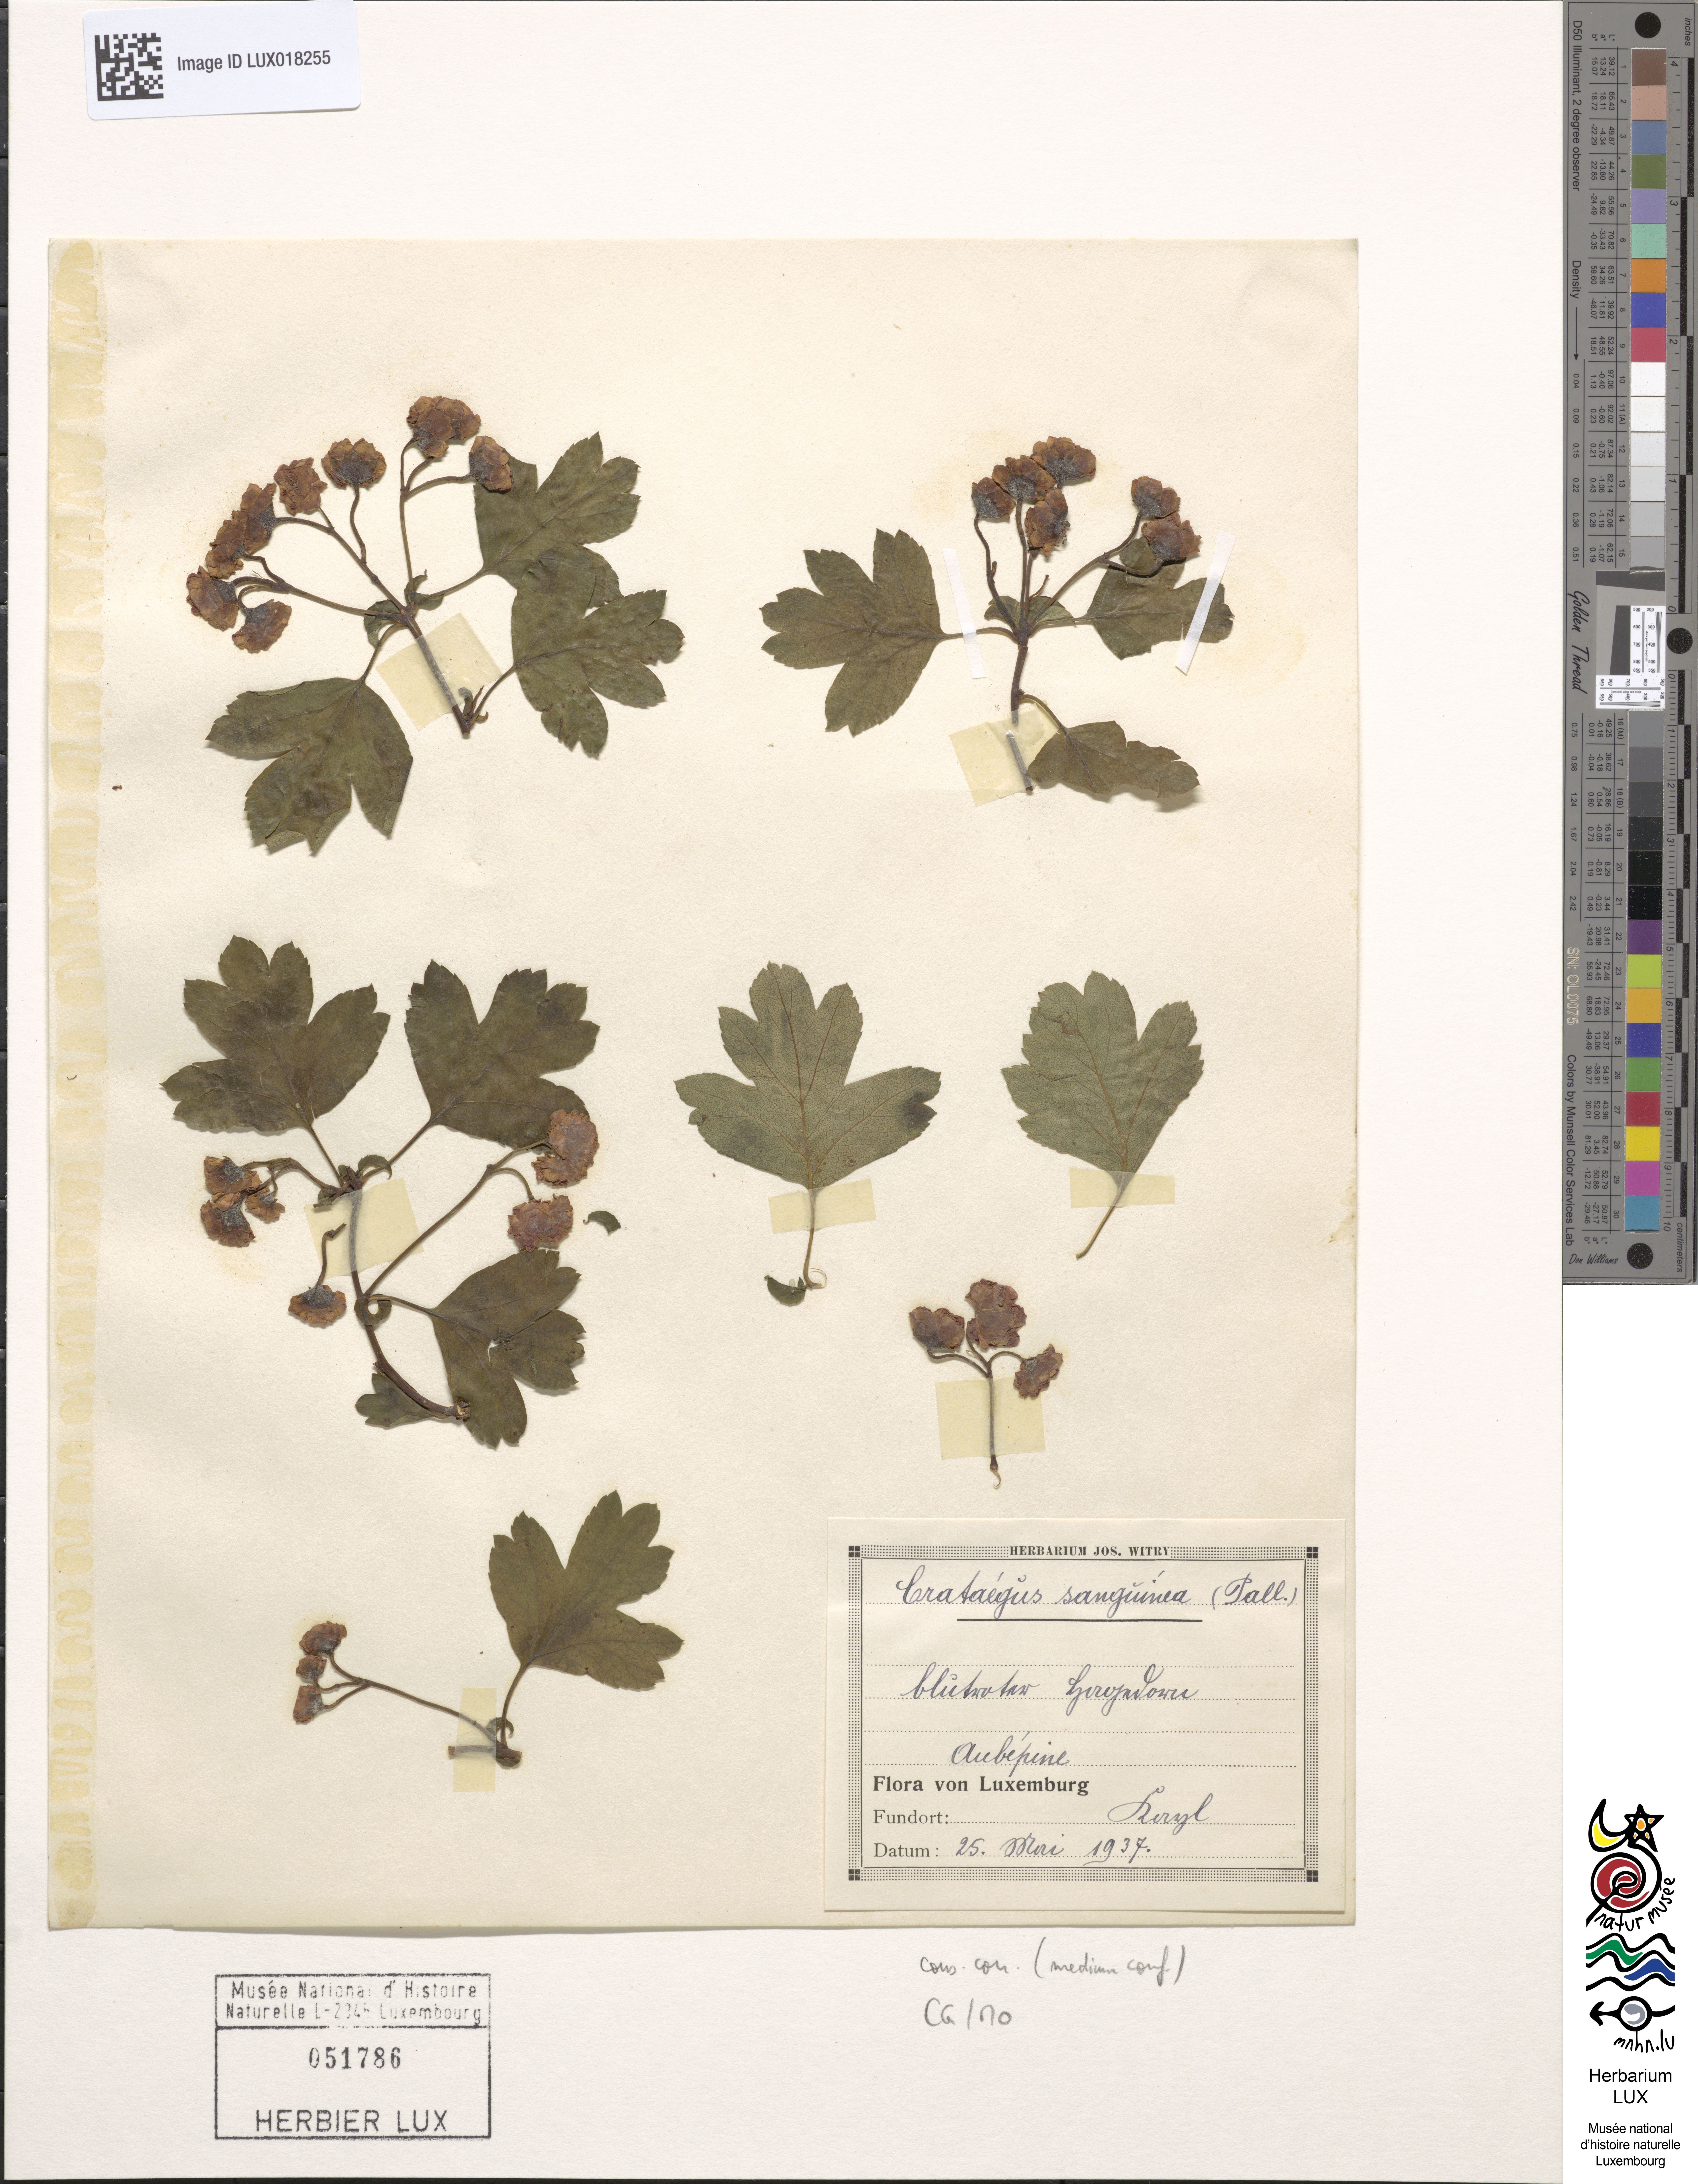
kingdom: Plantae
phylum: Tracheophyta
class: Magnoliopsida
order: Rosales
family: Rosaceae
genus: Crataegus
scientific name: Crataegus sanguinea
